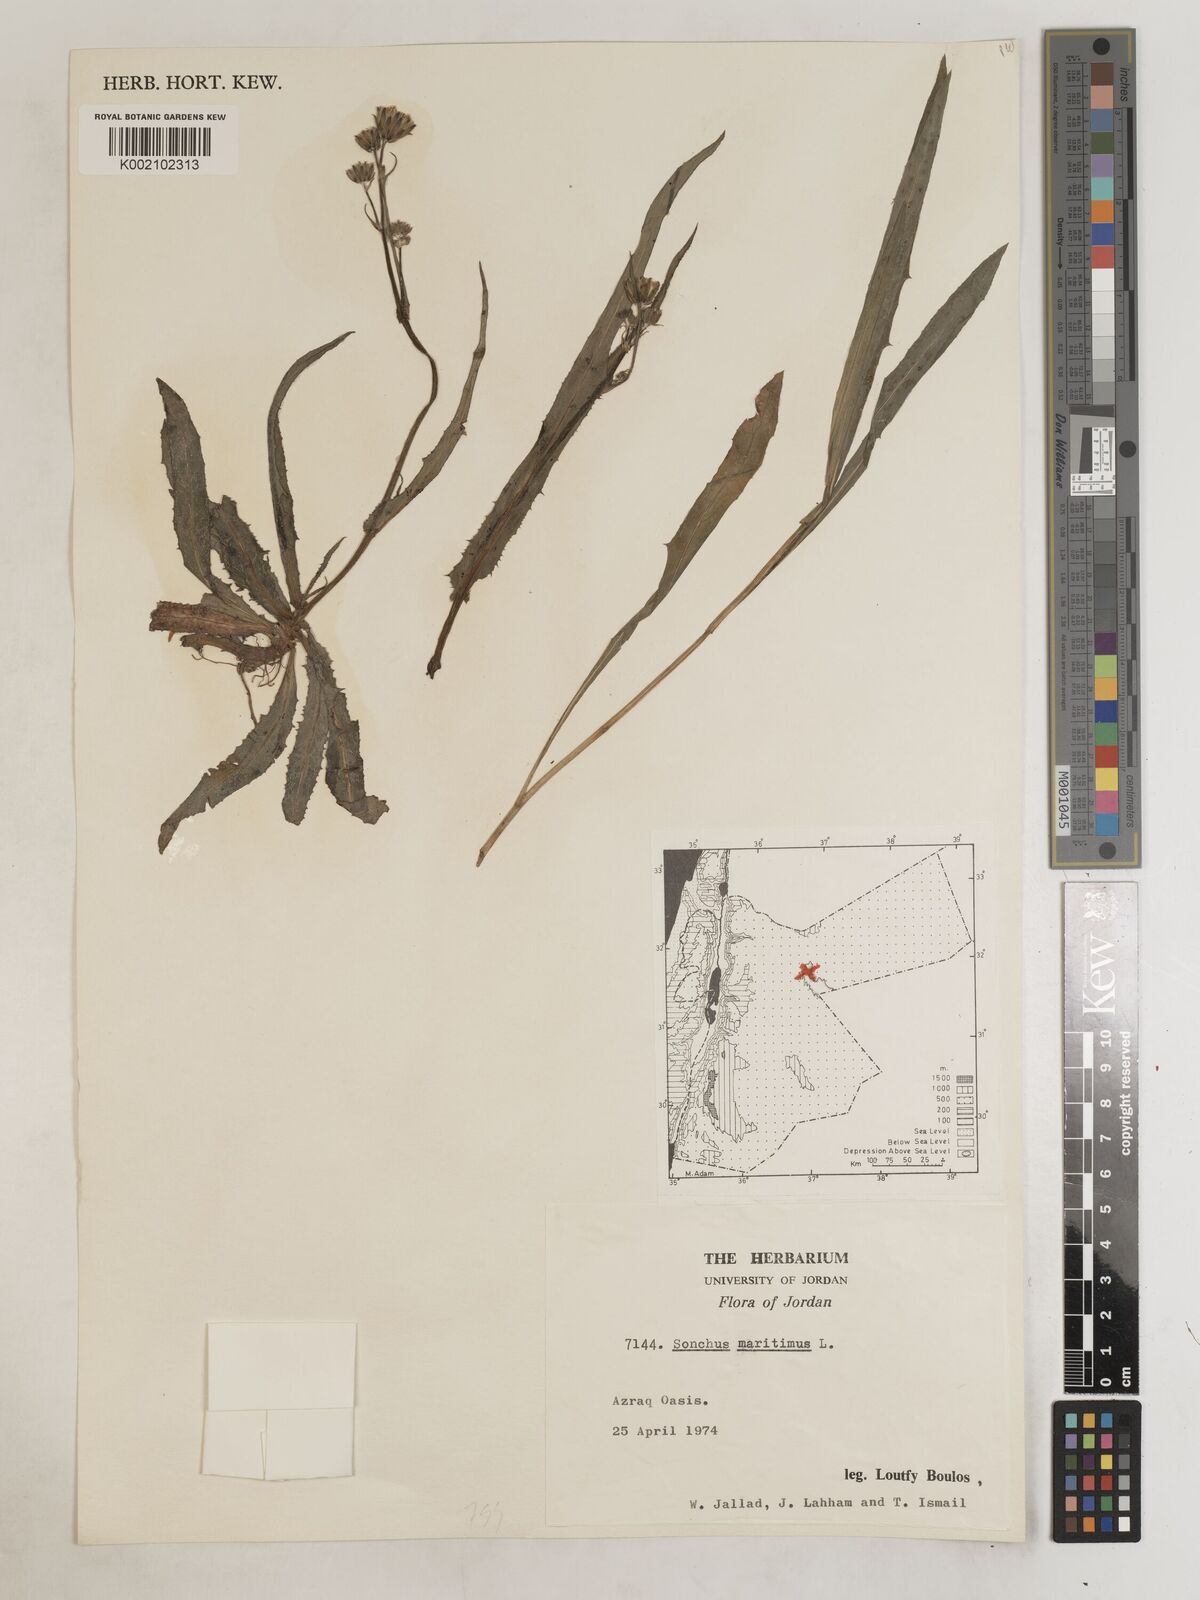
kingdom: Plantae
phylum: Tracheophyta
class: Magnoliopsida
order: Asterales
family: Asteraceae
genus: Sonchus
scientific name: Sonchus maritimus
